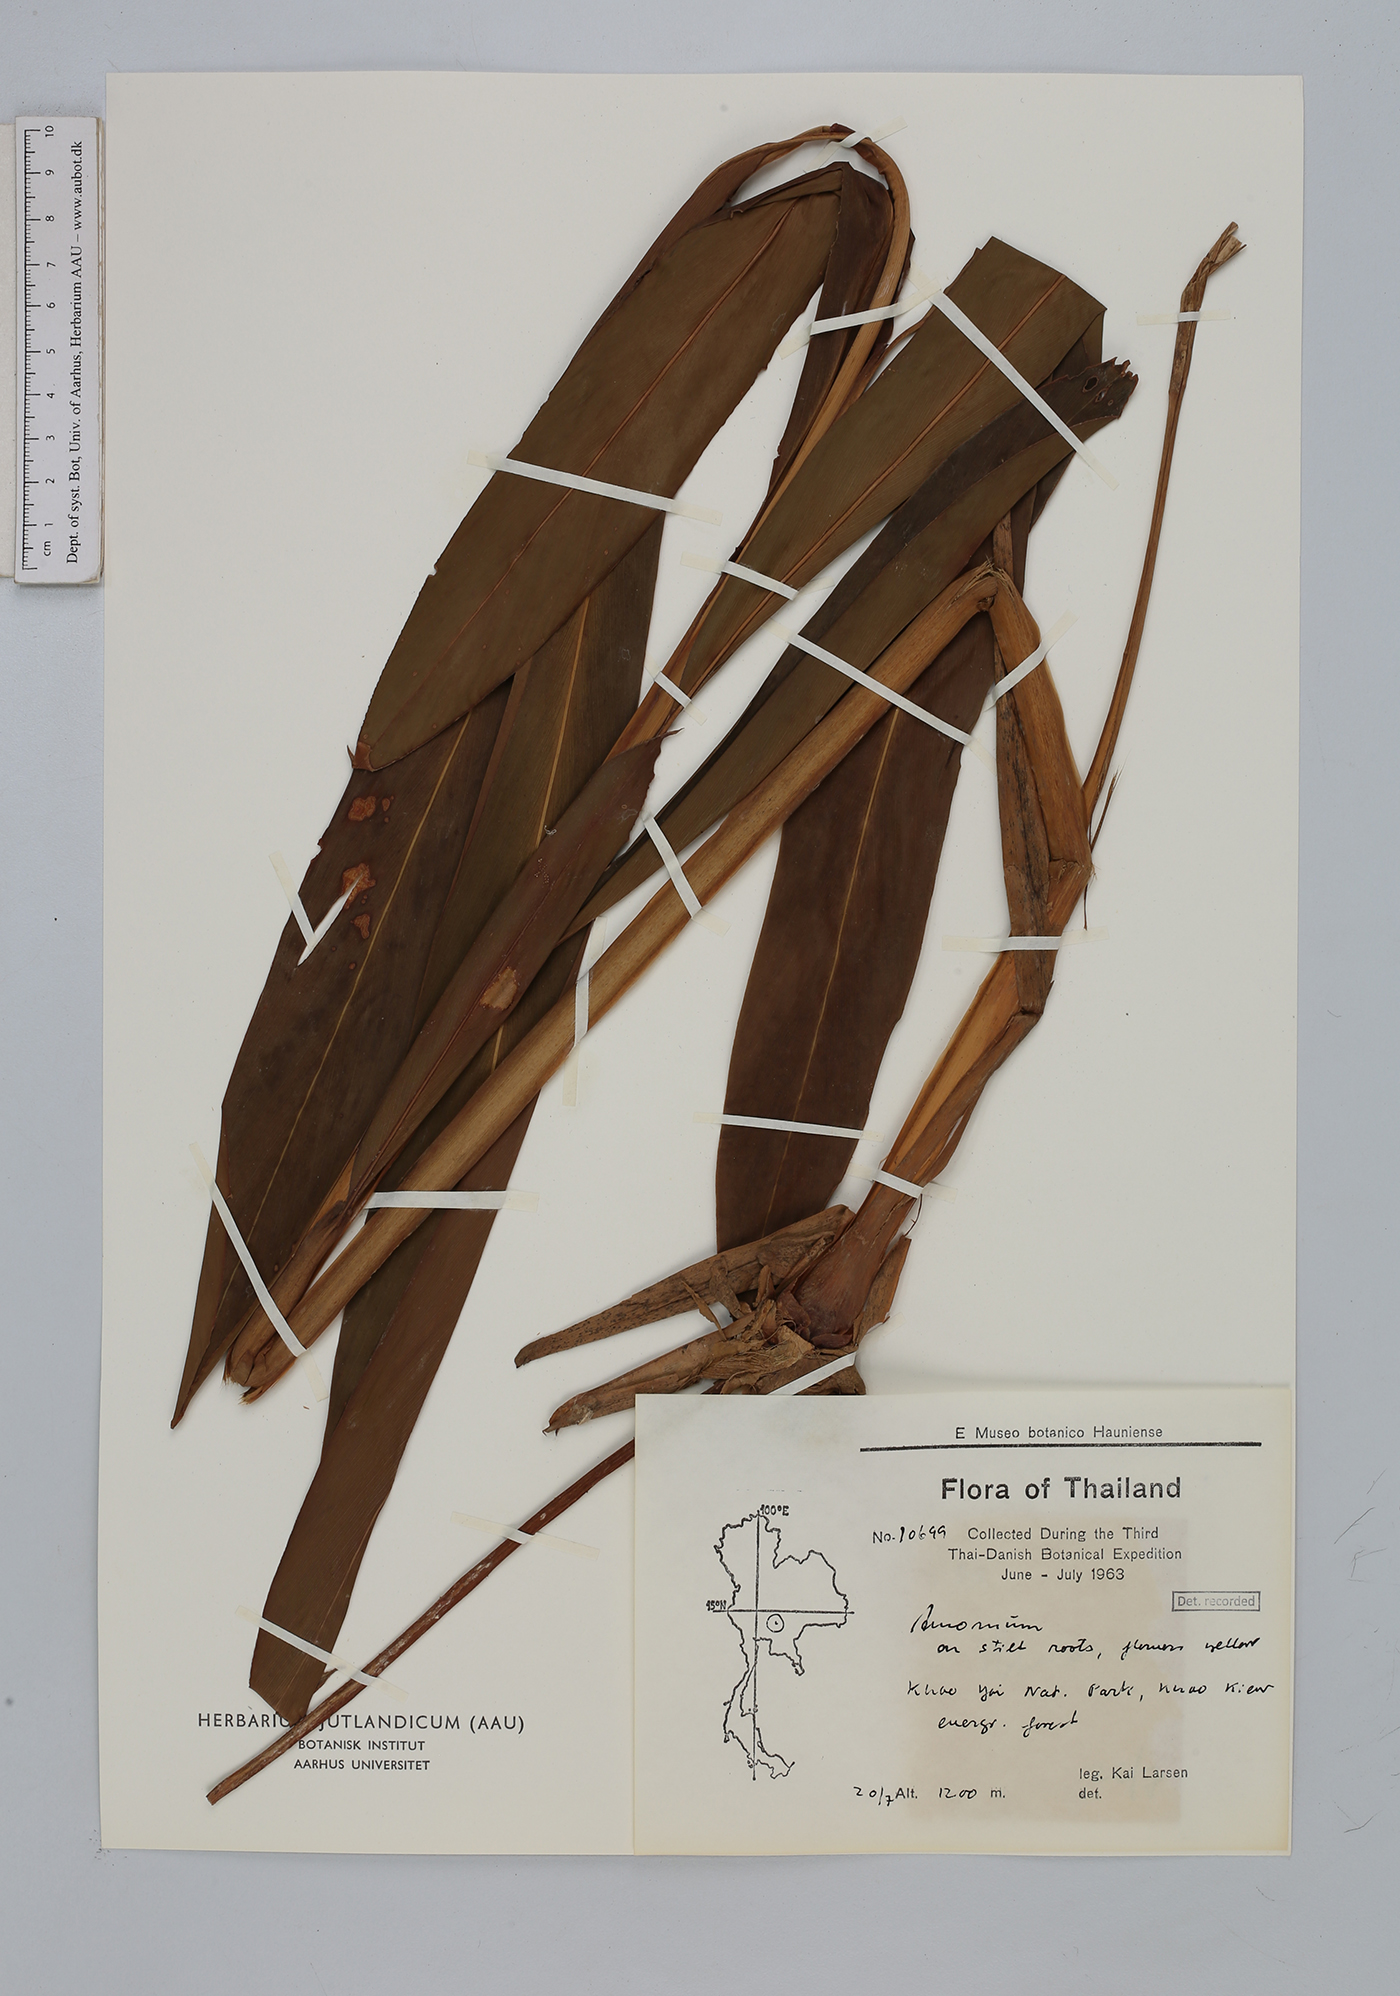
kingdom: Plantae
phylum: Tracheophyta
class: Liliopsida
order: Zingiberales
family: Zingiberaceae
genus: Amomum
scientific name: Amomum
